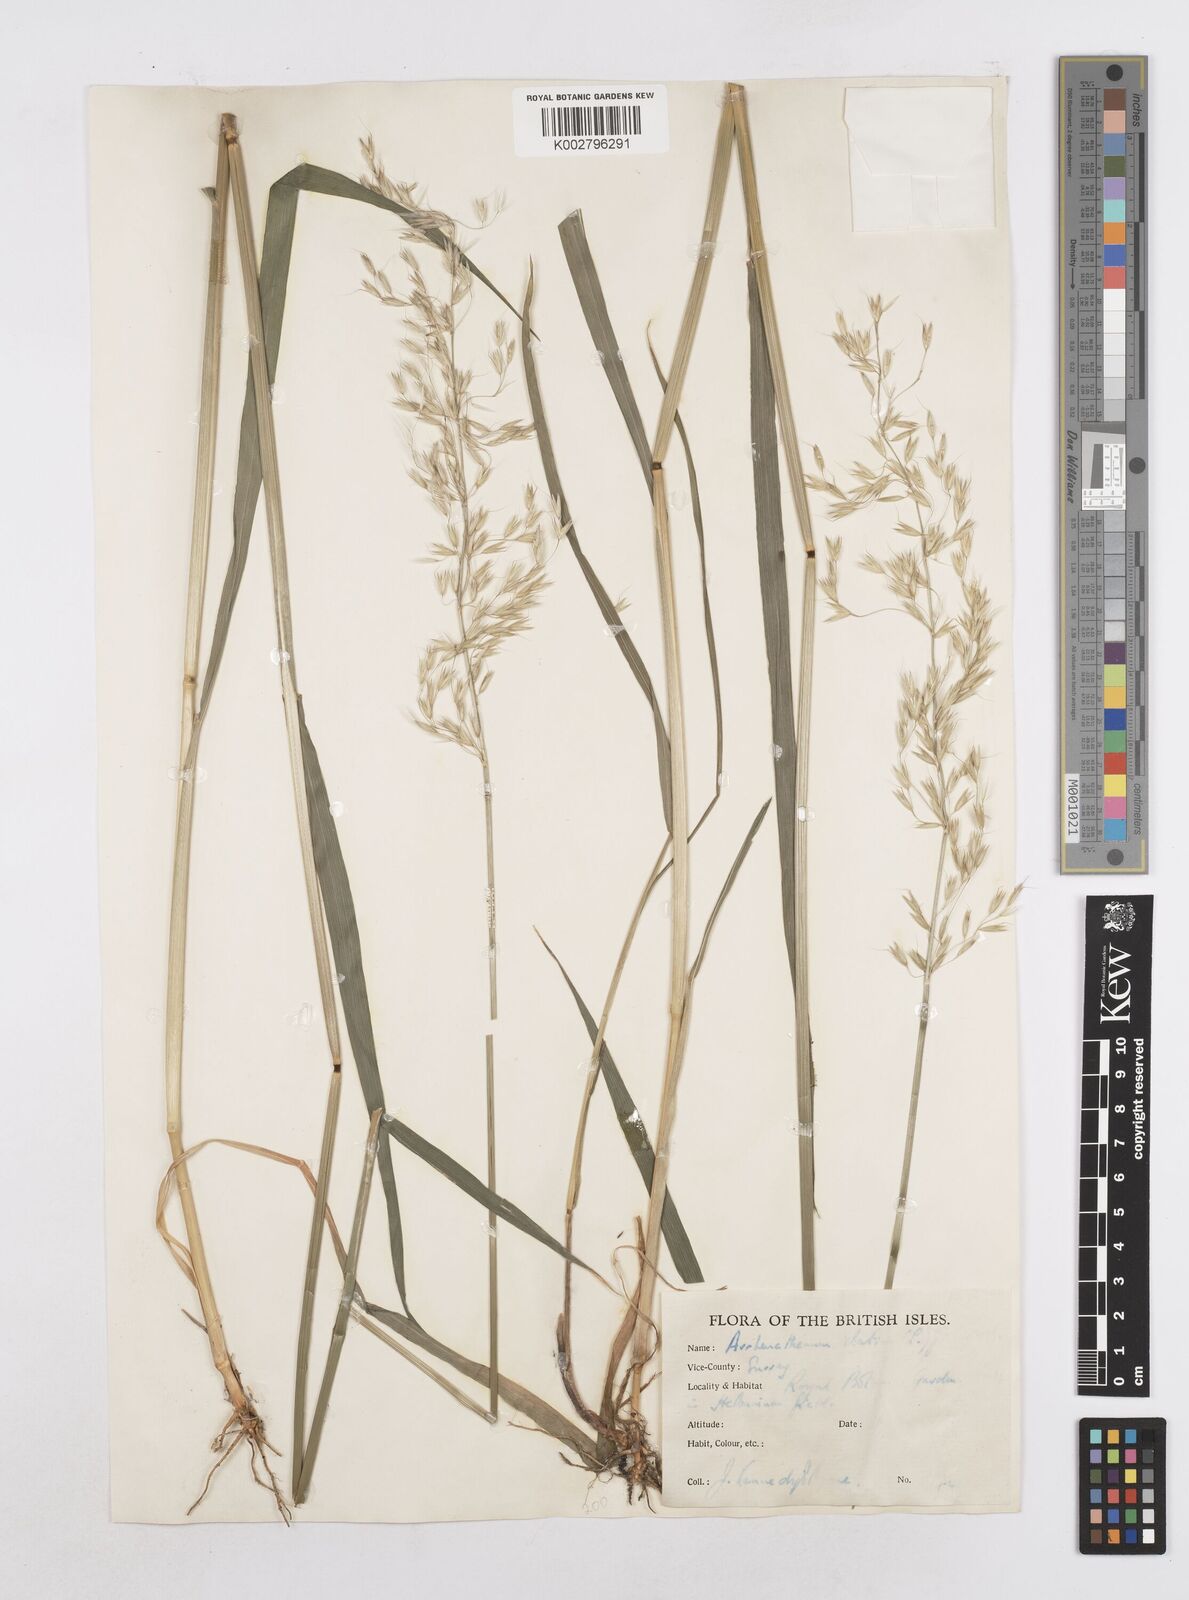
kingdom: Plantae
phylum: Tracheophyta
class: Liliopsida
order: Poales
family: Poaceae
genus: Arrhenatherum
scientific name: Arrhenatherum elatius
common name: Tall oatgrass
